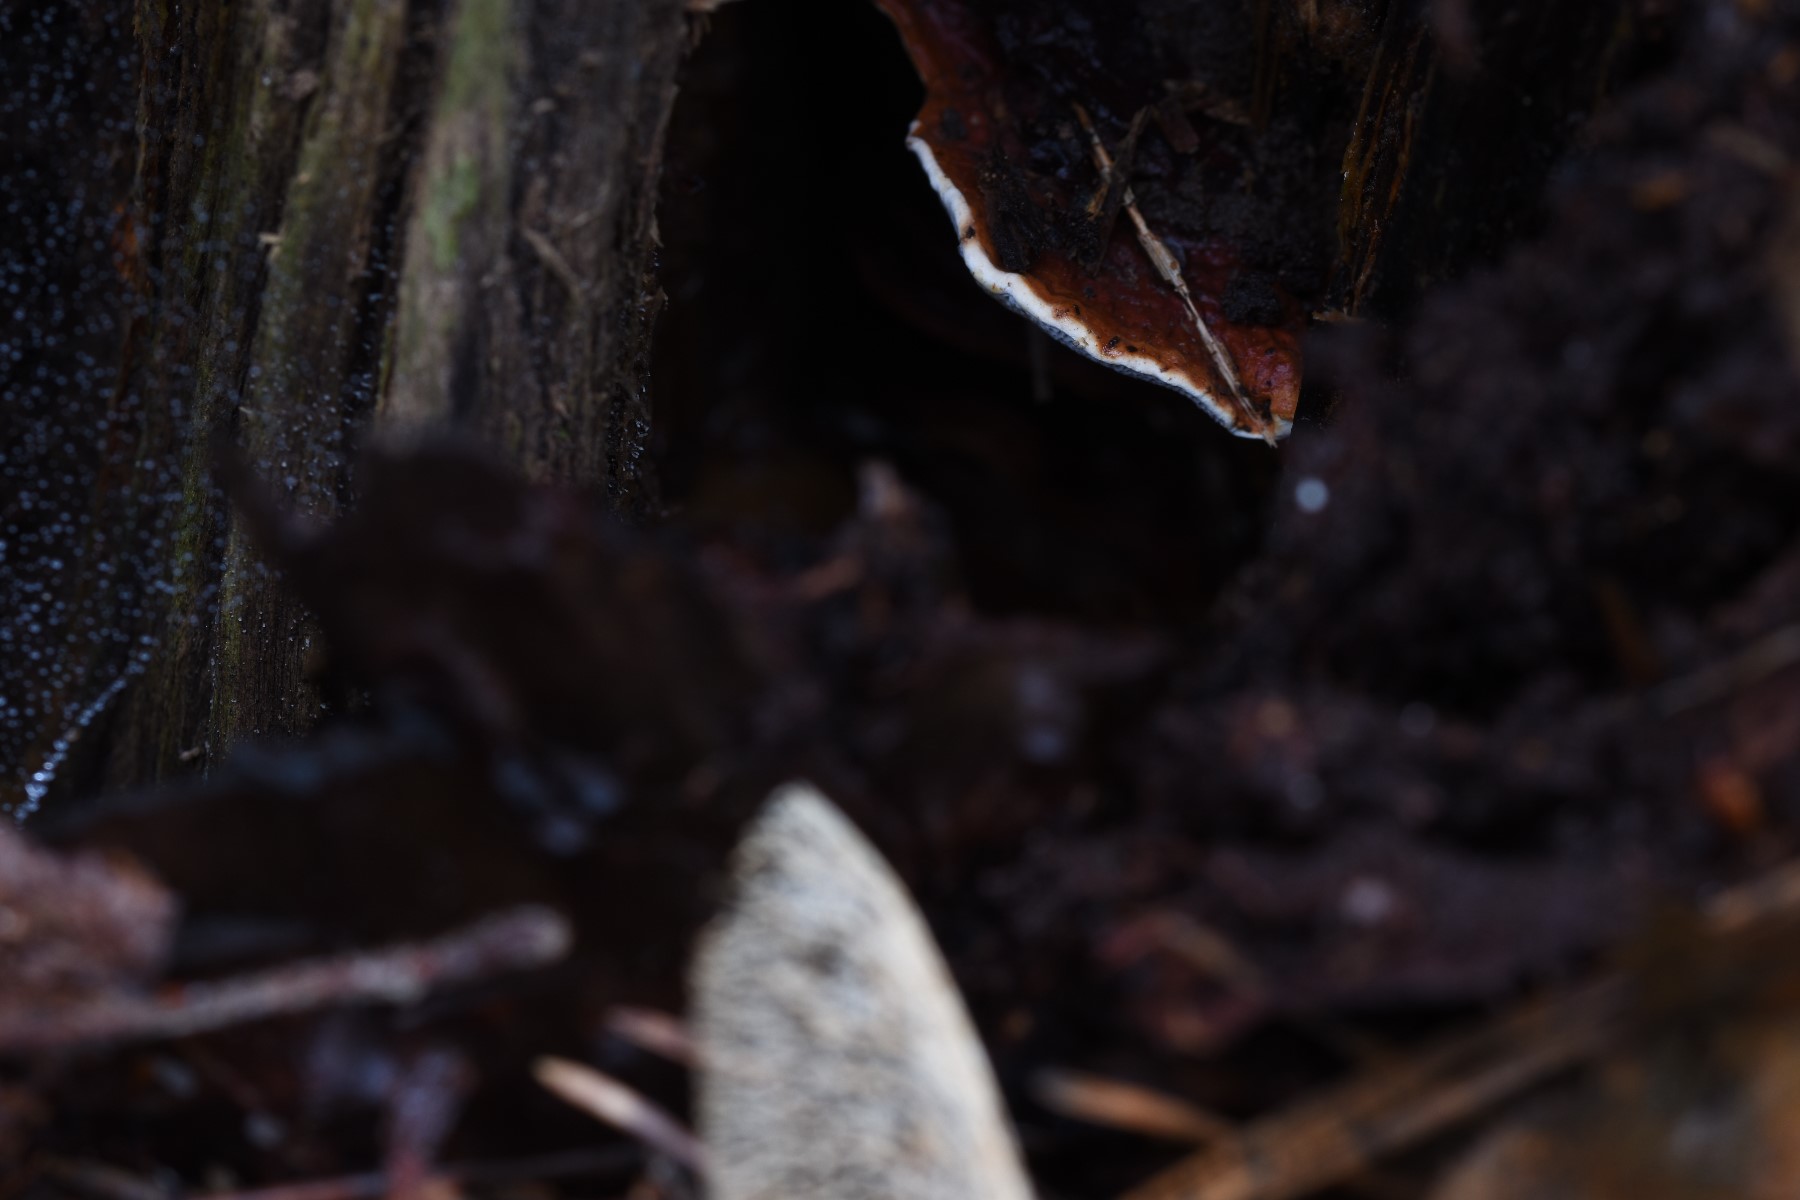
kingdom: Fungi
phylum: Basidiomycota
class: Agaricomycetes
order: Russulales
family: Bondarzewiaceae
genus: Heterobasidion
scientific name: Heterobasidion annosum
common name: almindelig rodfordærver
